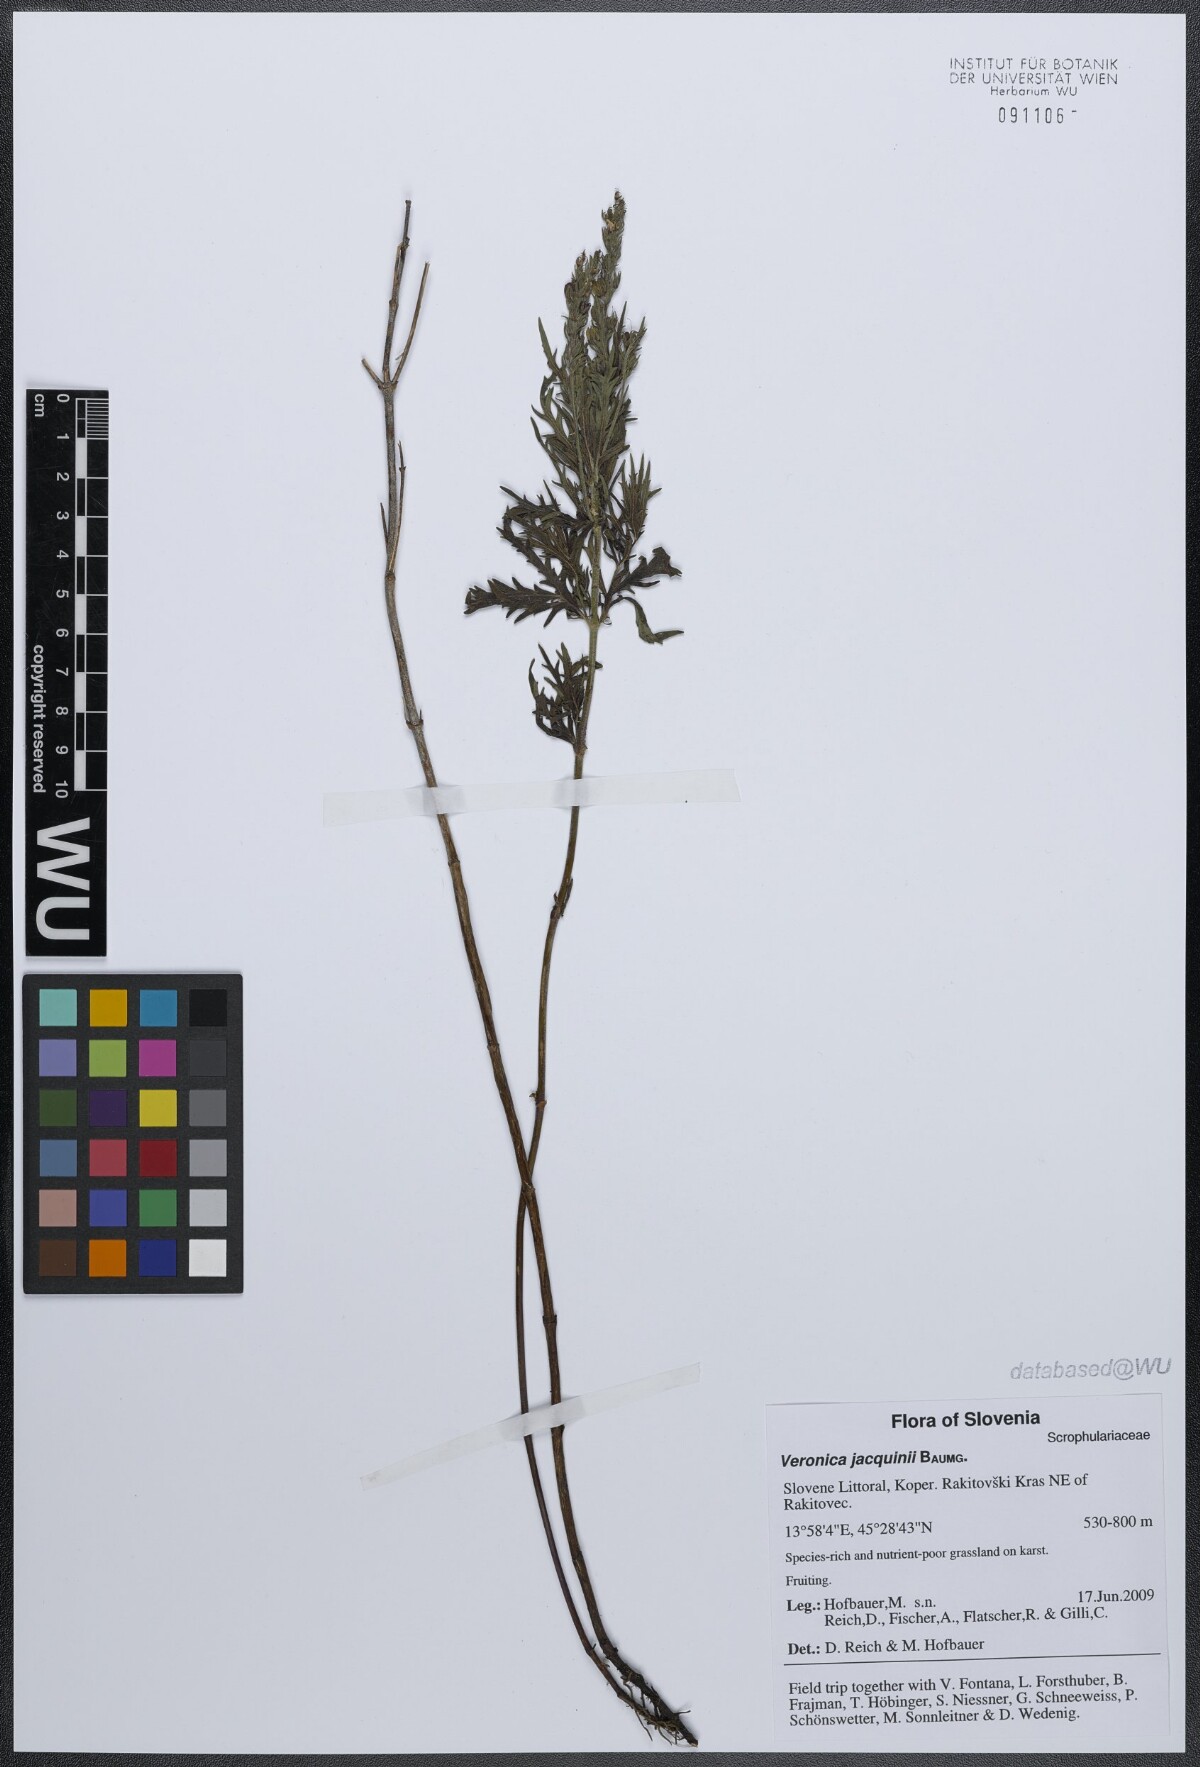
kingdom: Plantae
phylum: Tracheophyta
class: Magnoliopsida
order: Lamiales
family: Plantaginaceae
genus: Veronica
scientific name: Veronica austriaca
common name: Large speedwell
